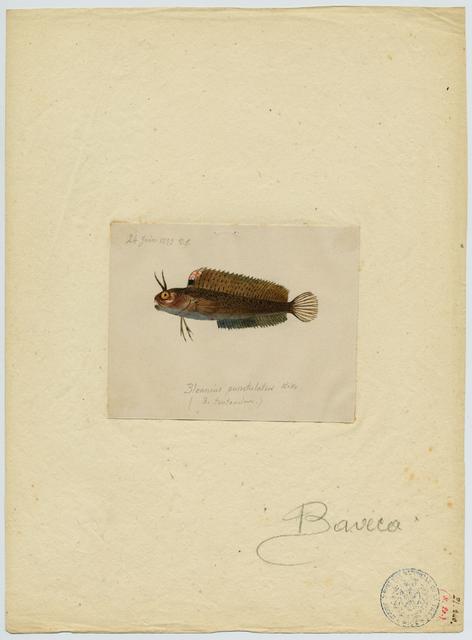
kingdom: Animalia
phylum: Chordata
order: Perciformes
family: Blenniidae
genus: Parablennius
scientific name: Parablennius tentacularis
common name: Tentacled blenny
